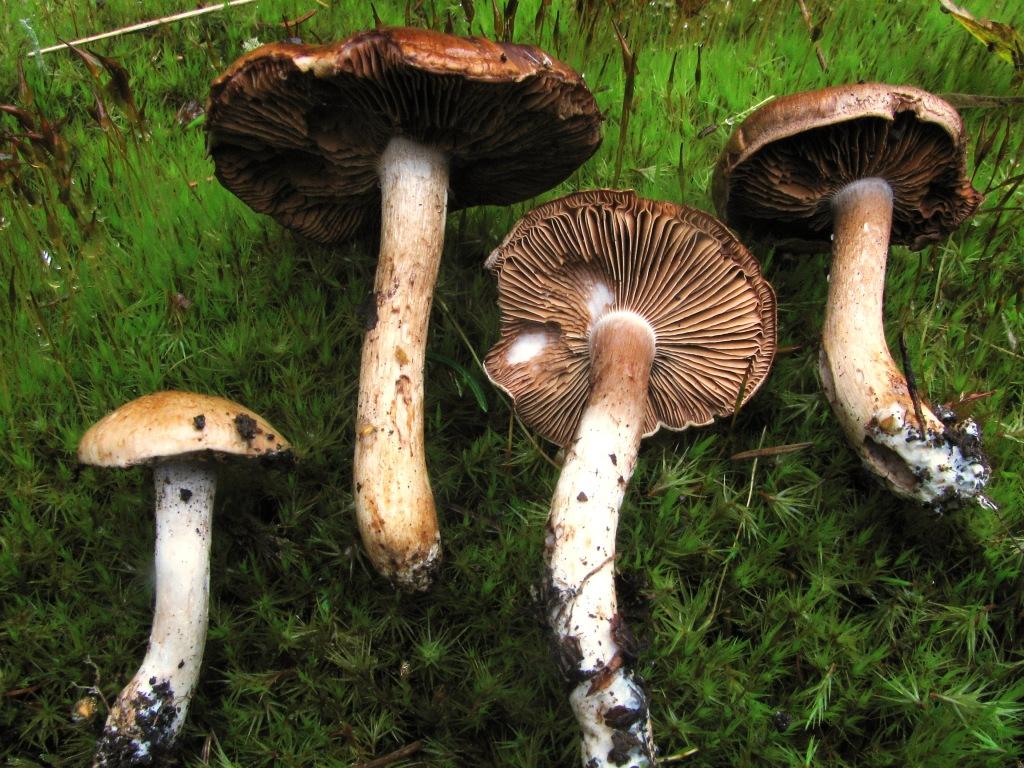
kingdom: Fungi
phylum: Basidiomycota
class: Agaricomycetes
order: Agaricales
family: Cortinariaceae
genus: Phlegmacium
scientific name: Phlegmacium brunneiaurantium
